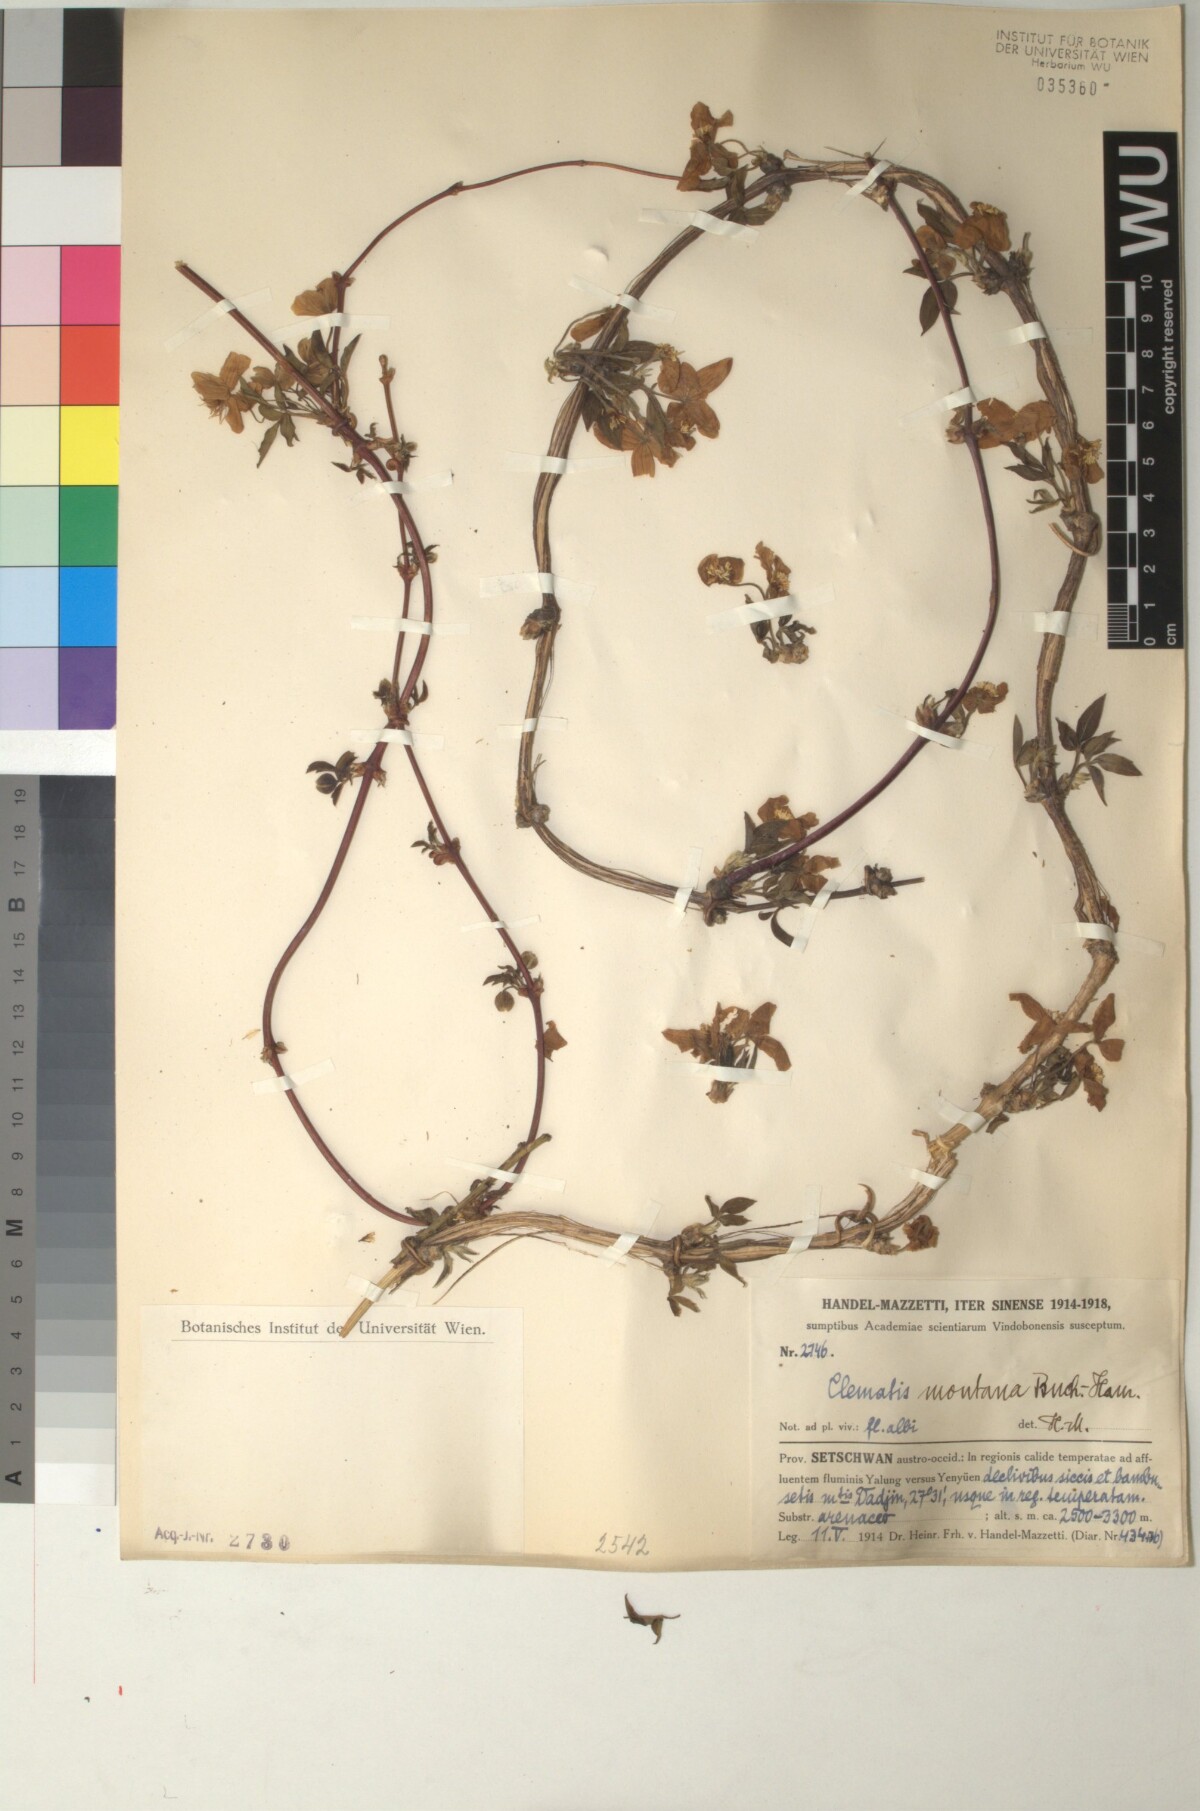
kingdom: Plantae
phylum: Tracheophyta
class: Magnoliopsida
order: Ranunculales
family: Ranunculaceae
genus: Clematis
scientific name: Clematis montana
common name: Himalayan clematis
